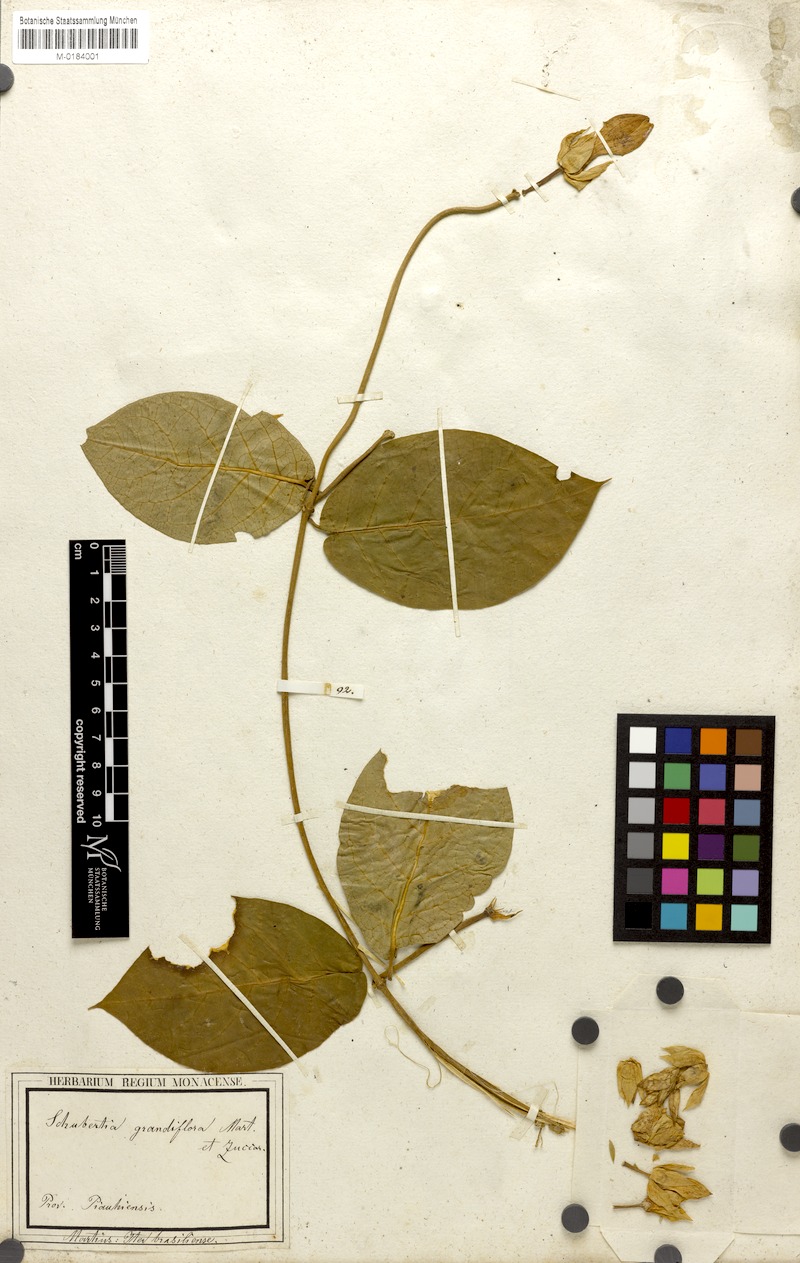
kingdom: Plantae
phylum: Tracheophyta
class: Magnoliopsida
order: Gentianales
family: Apocynaceae
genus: Macroscepis
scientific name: Macroscepis grandiflora
